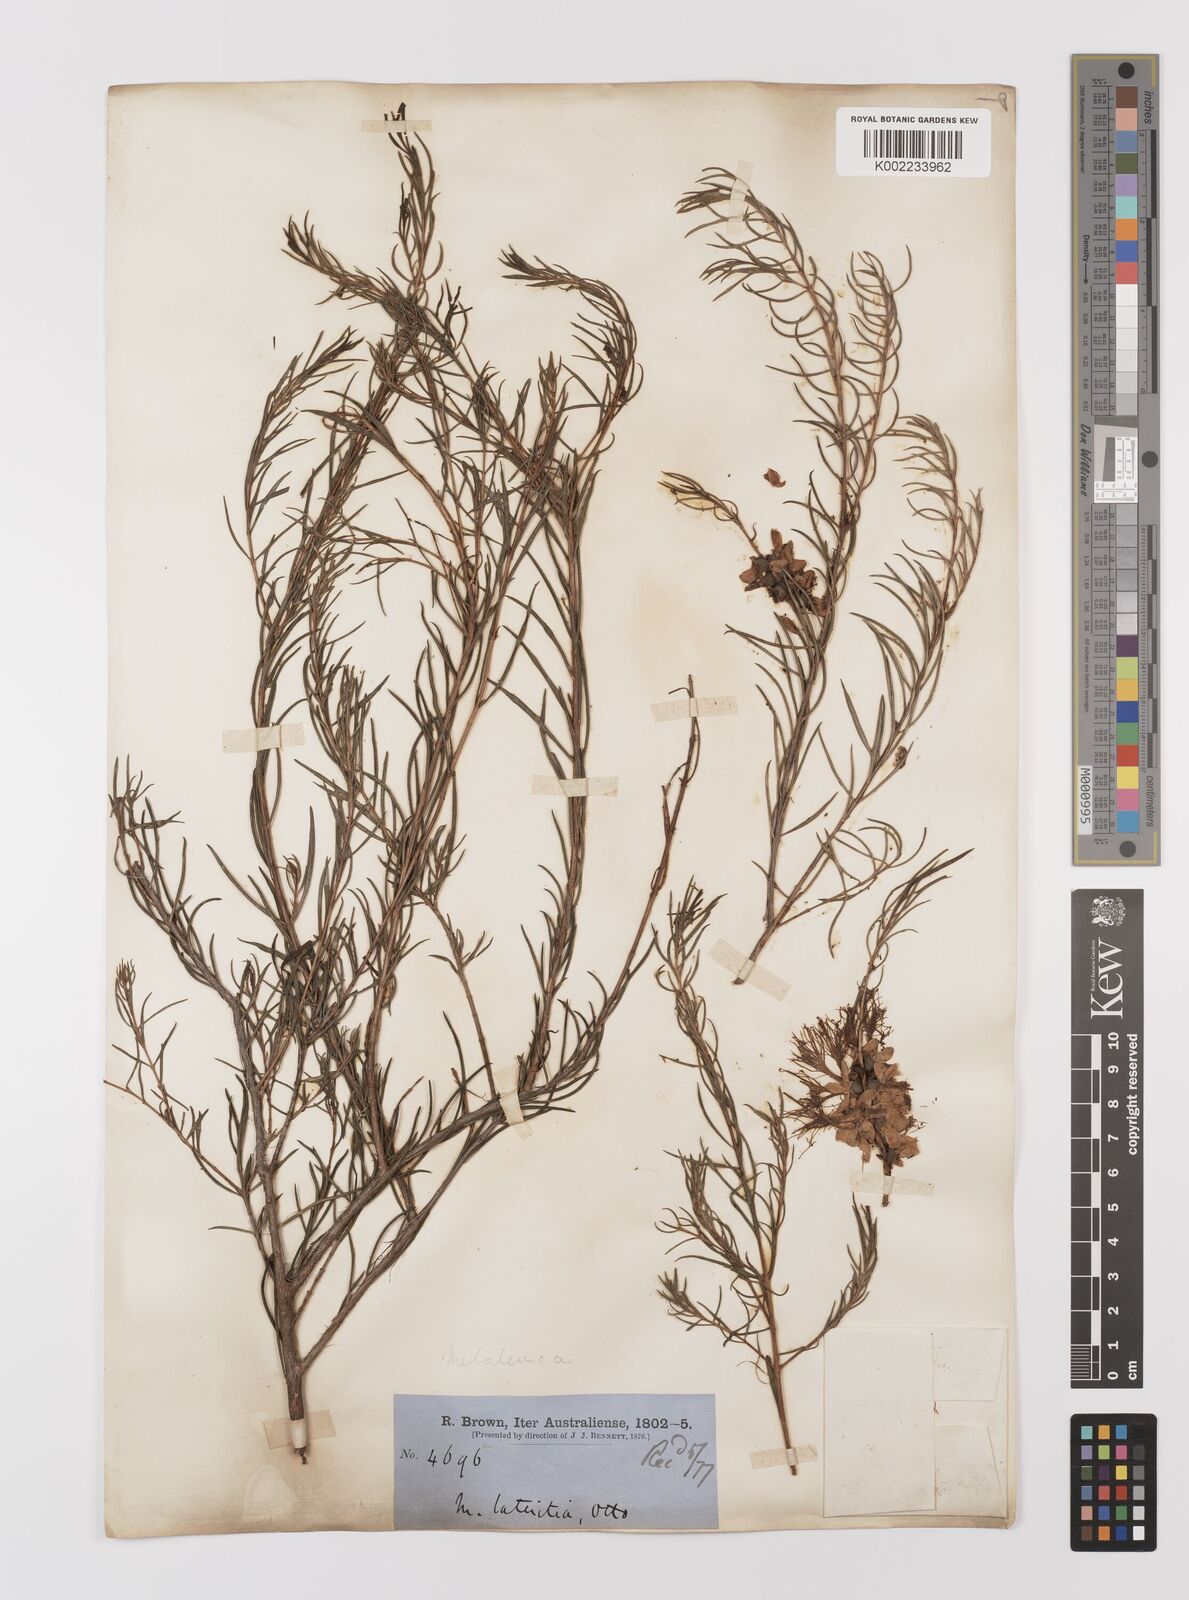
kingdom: Plantae
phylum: Tracheophyta
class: Magnoliopsida
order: Myrtales
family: Myrtaceae
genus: Melaleuca
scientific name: Melaleuca lateritia
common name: Robin red-breast
